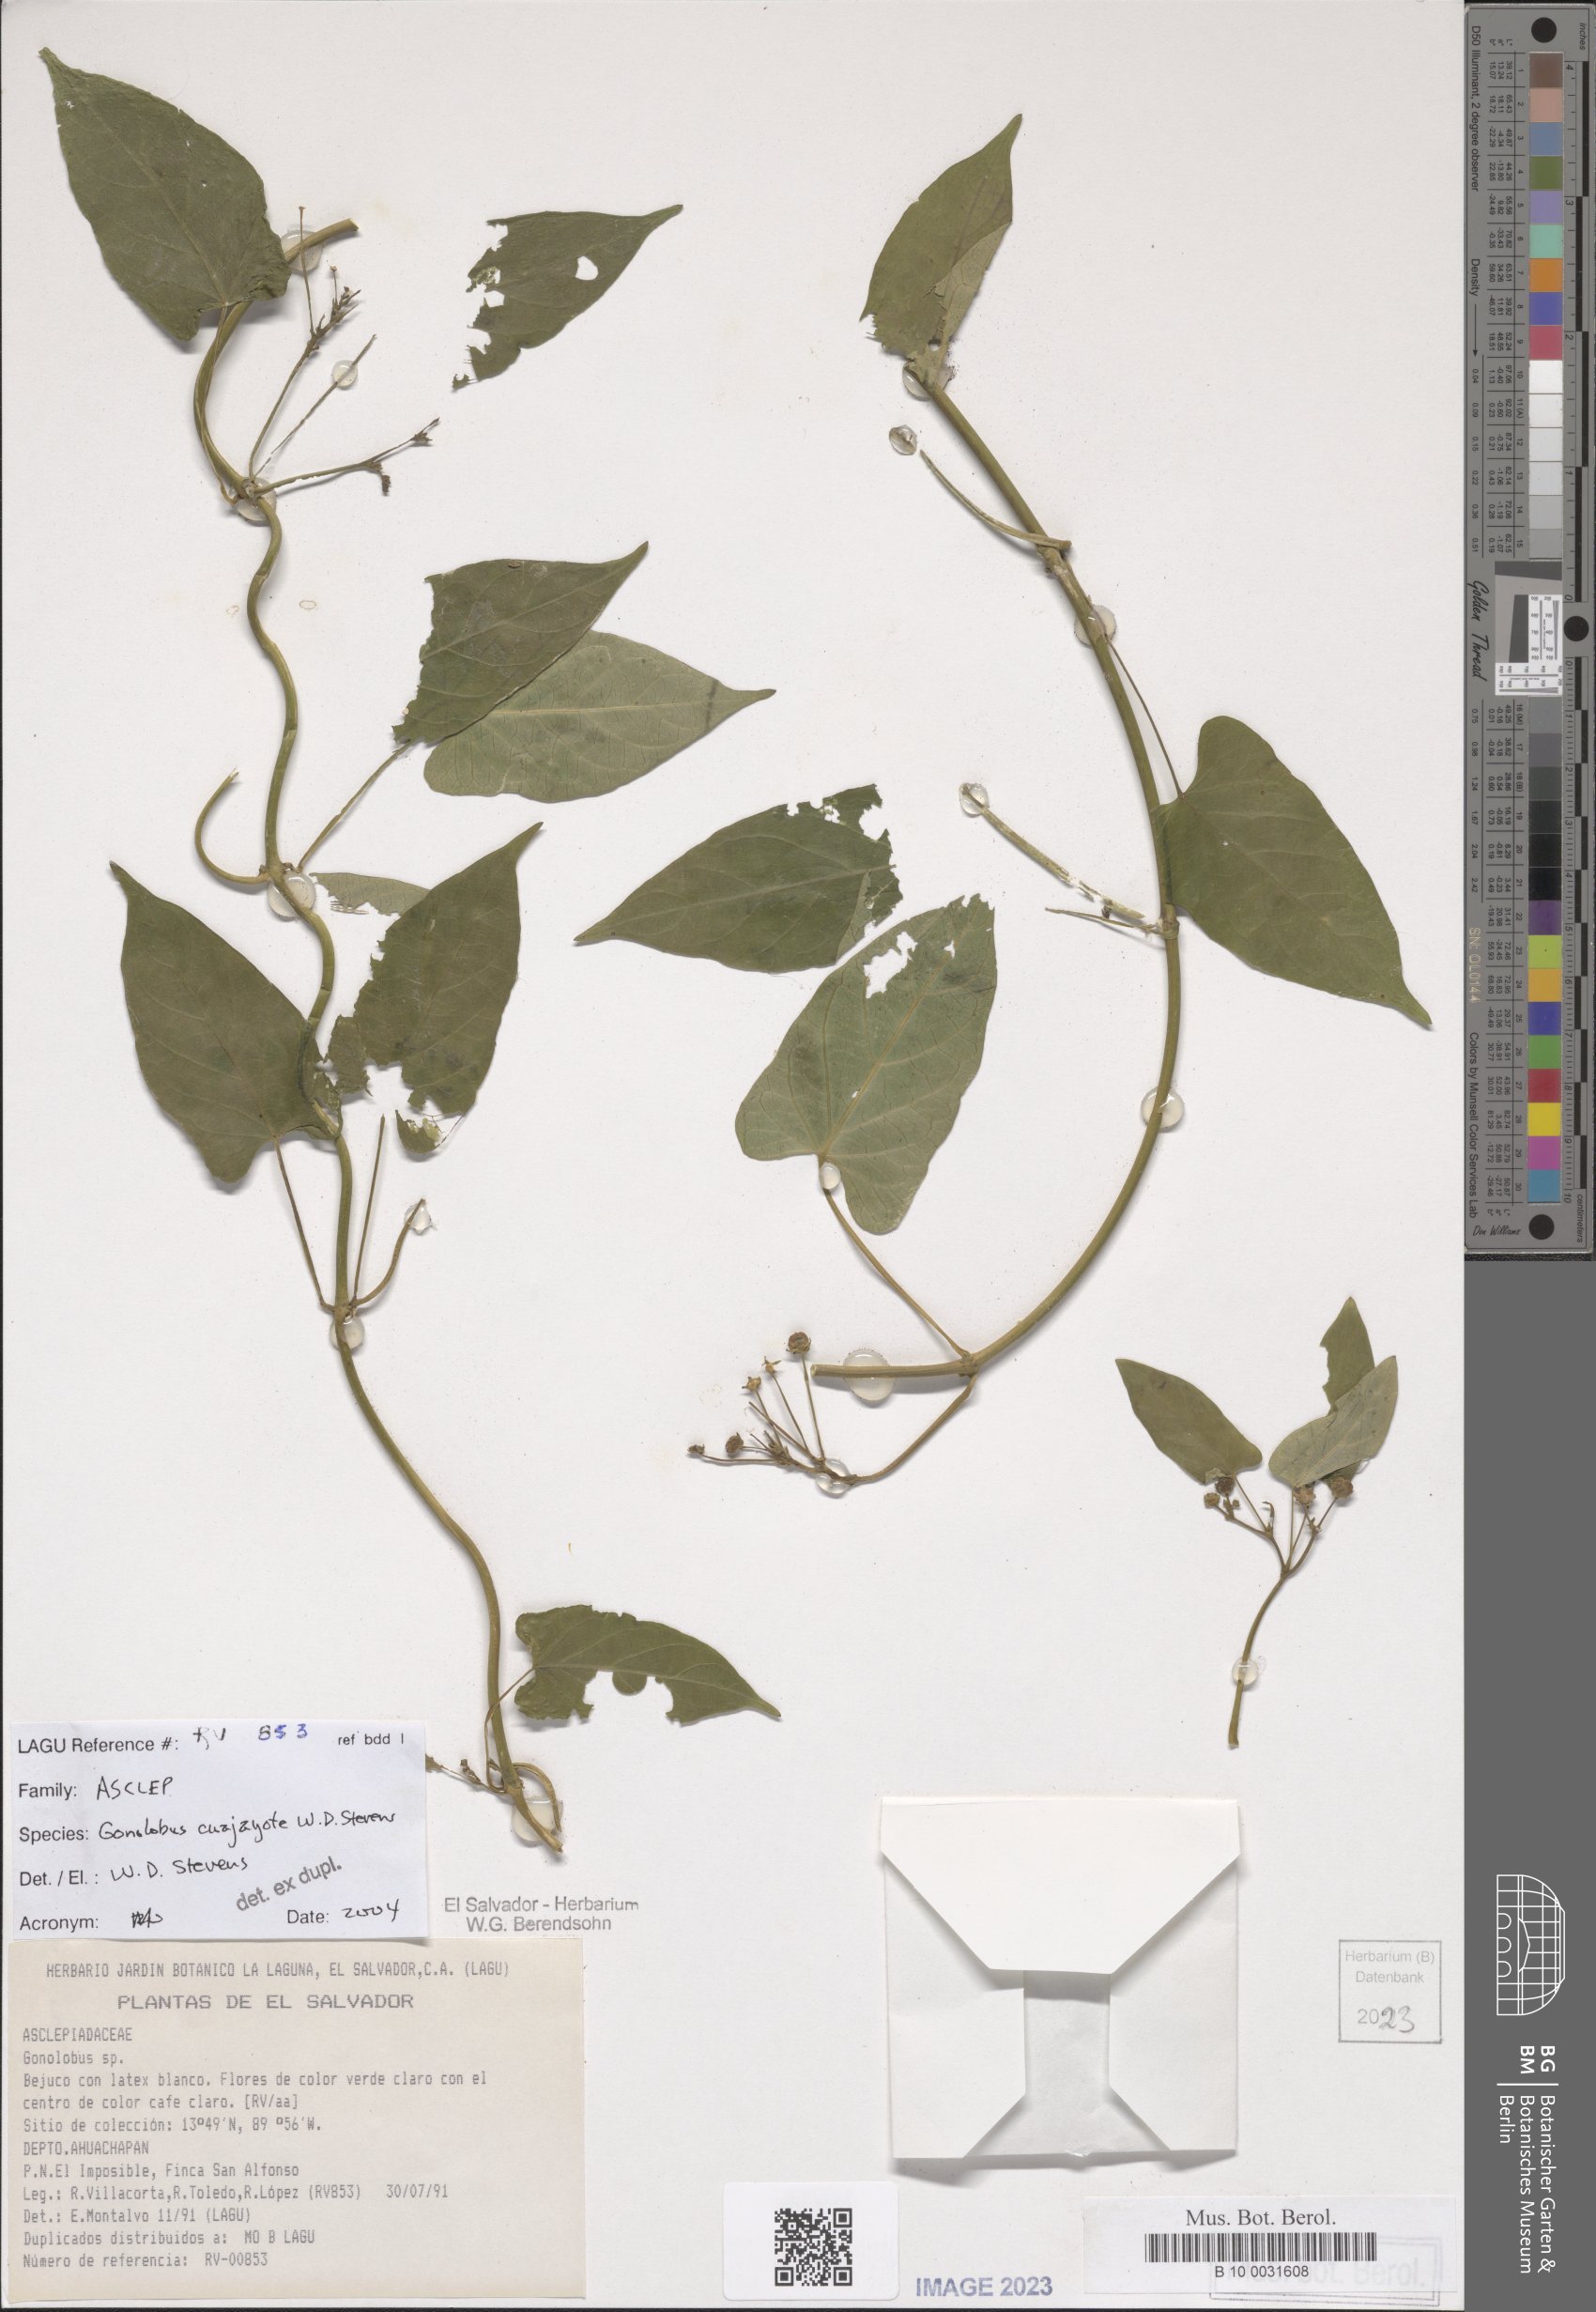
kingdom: Plantae
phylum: Tracheophyta
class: Magnoliopsida
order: Gentianales
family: Apocynaceae
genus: Gonolobus
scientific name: Gonolobus cuajayote
